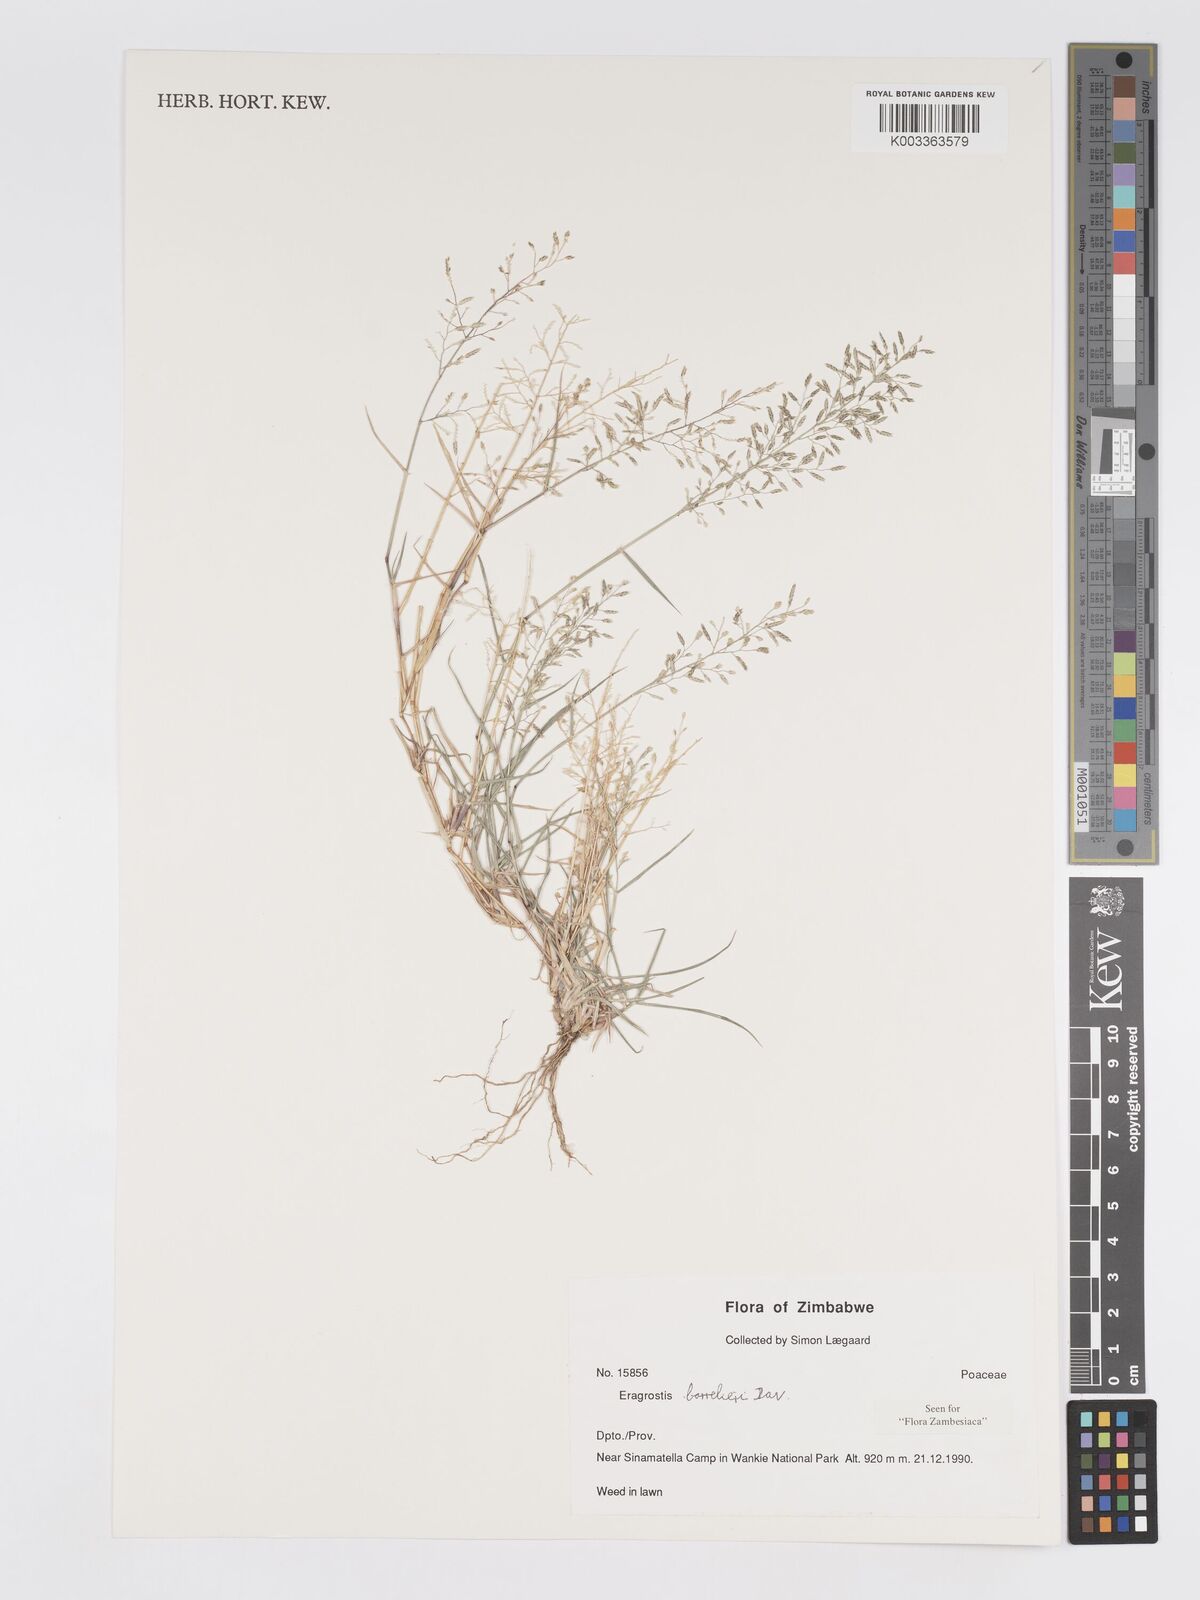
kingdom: Plantae
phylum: Tracheophyta
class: Liliopsida
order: Poales
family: Poaceae
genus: Eragrostis
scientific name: Eragrostis barrelieri
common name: Mediterranean lovegrass
